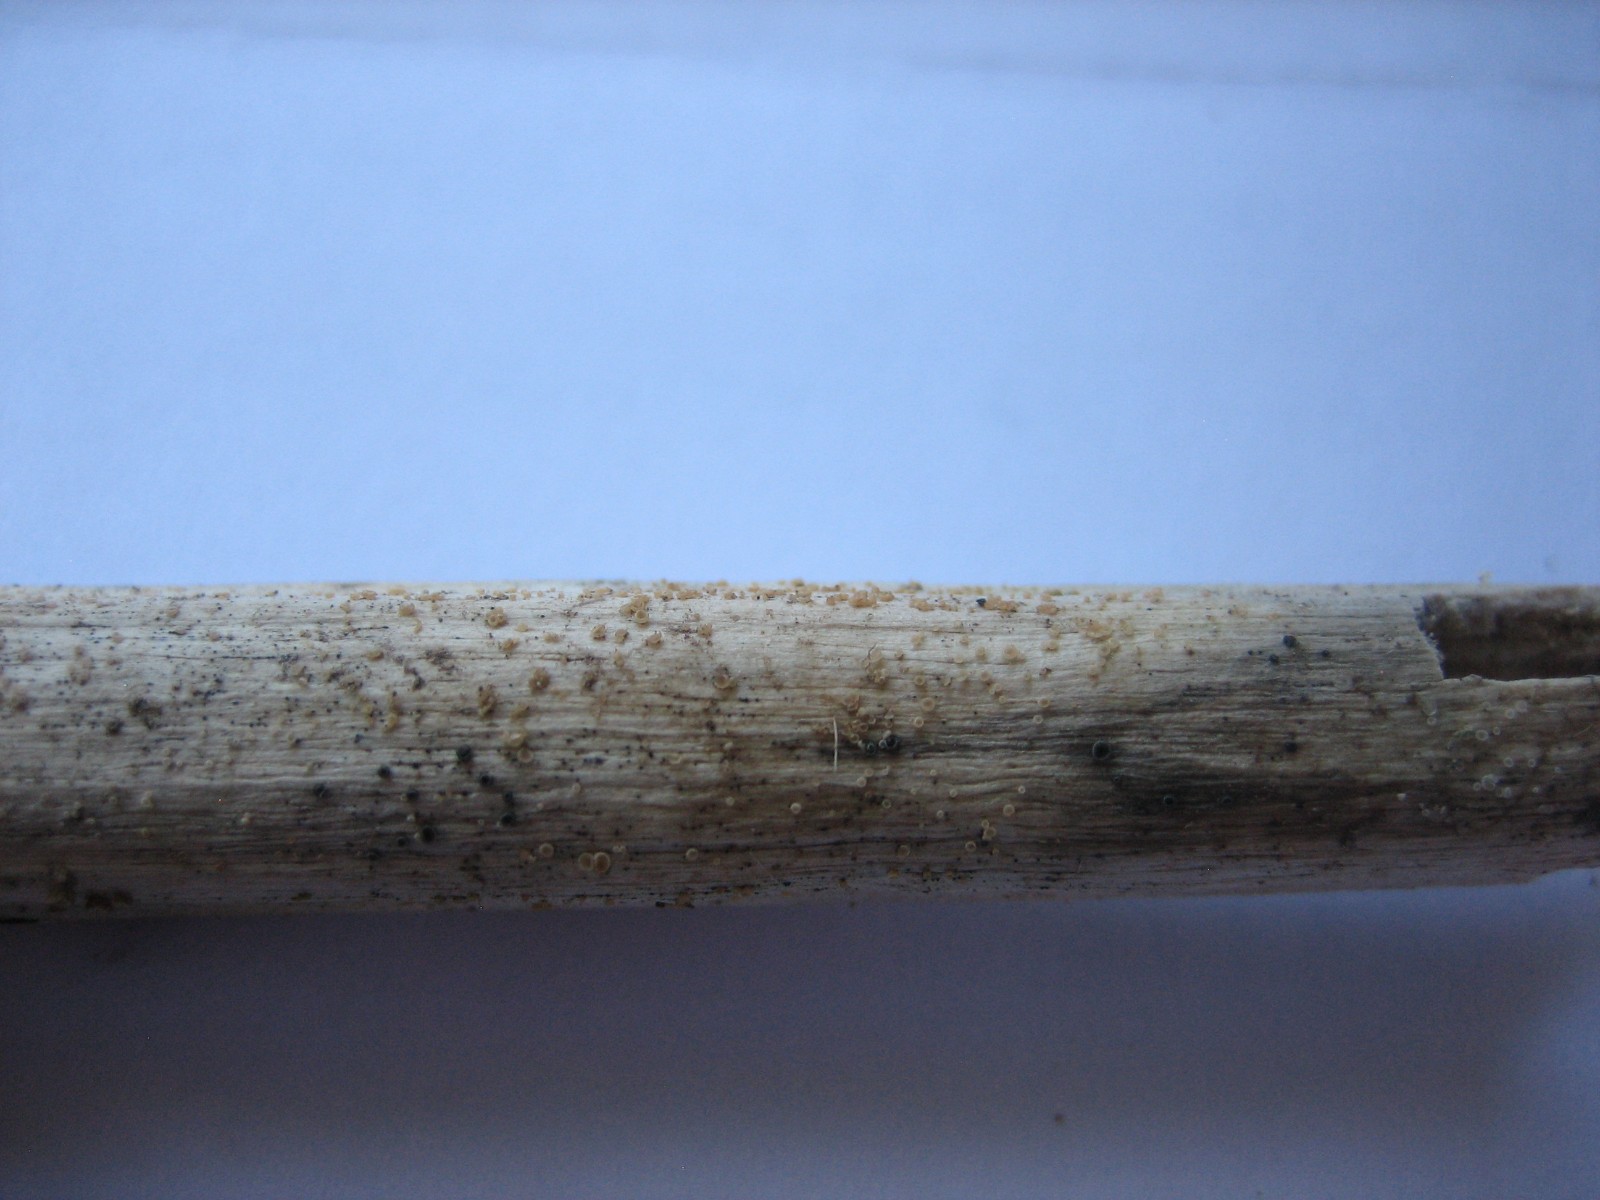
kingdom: Fungi
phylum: Ascomycota
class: Leotiomycetes
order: Helotiales
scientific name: Helotiales
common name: stilkskiveordenen
